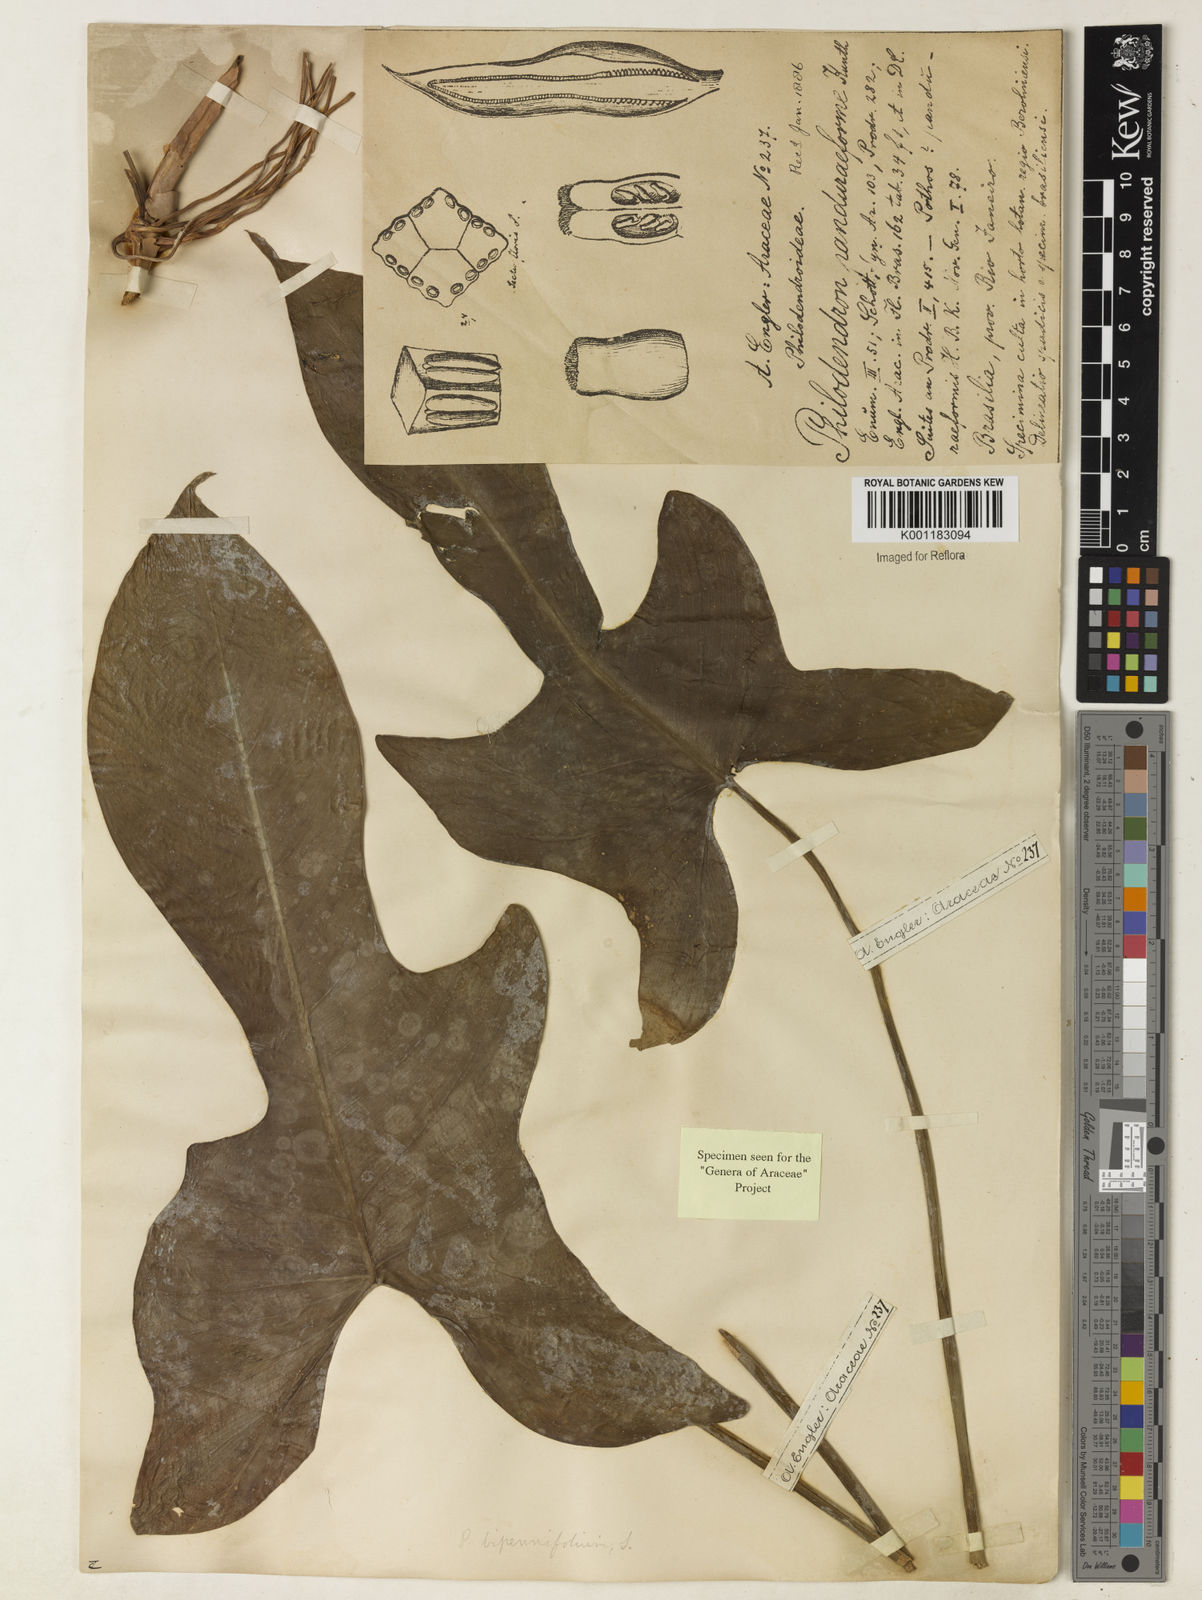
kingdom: Plantae
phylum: Tracheophyta
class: Liliopsida
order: Alismatales
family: Araceae
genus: Philodendron
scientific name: Philodendron bipennifolium
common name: Fiddle-leaf philodendron
